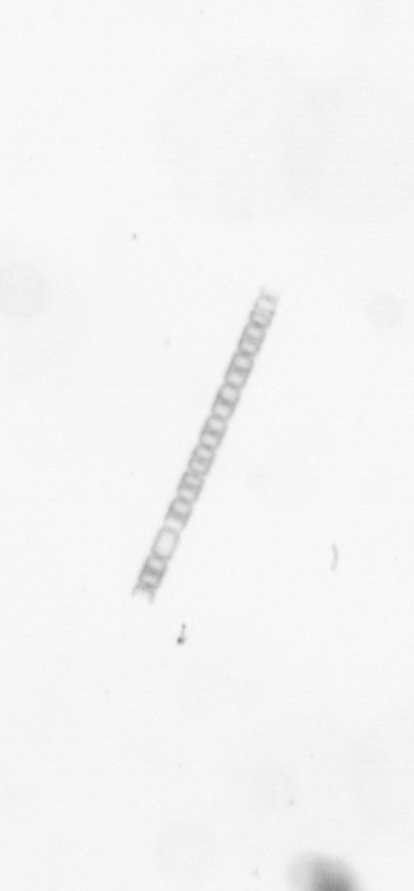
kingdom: Chromista
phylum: Ochrophyta
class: Bacillariophyceae
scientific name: Bacillariophyceae
